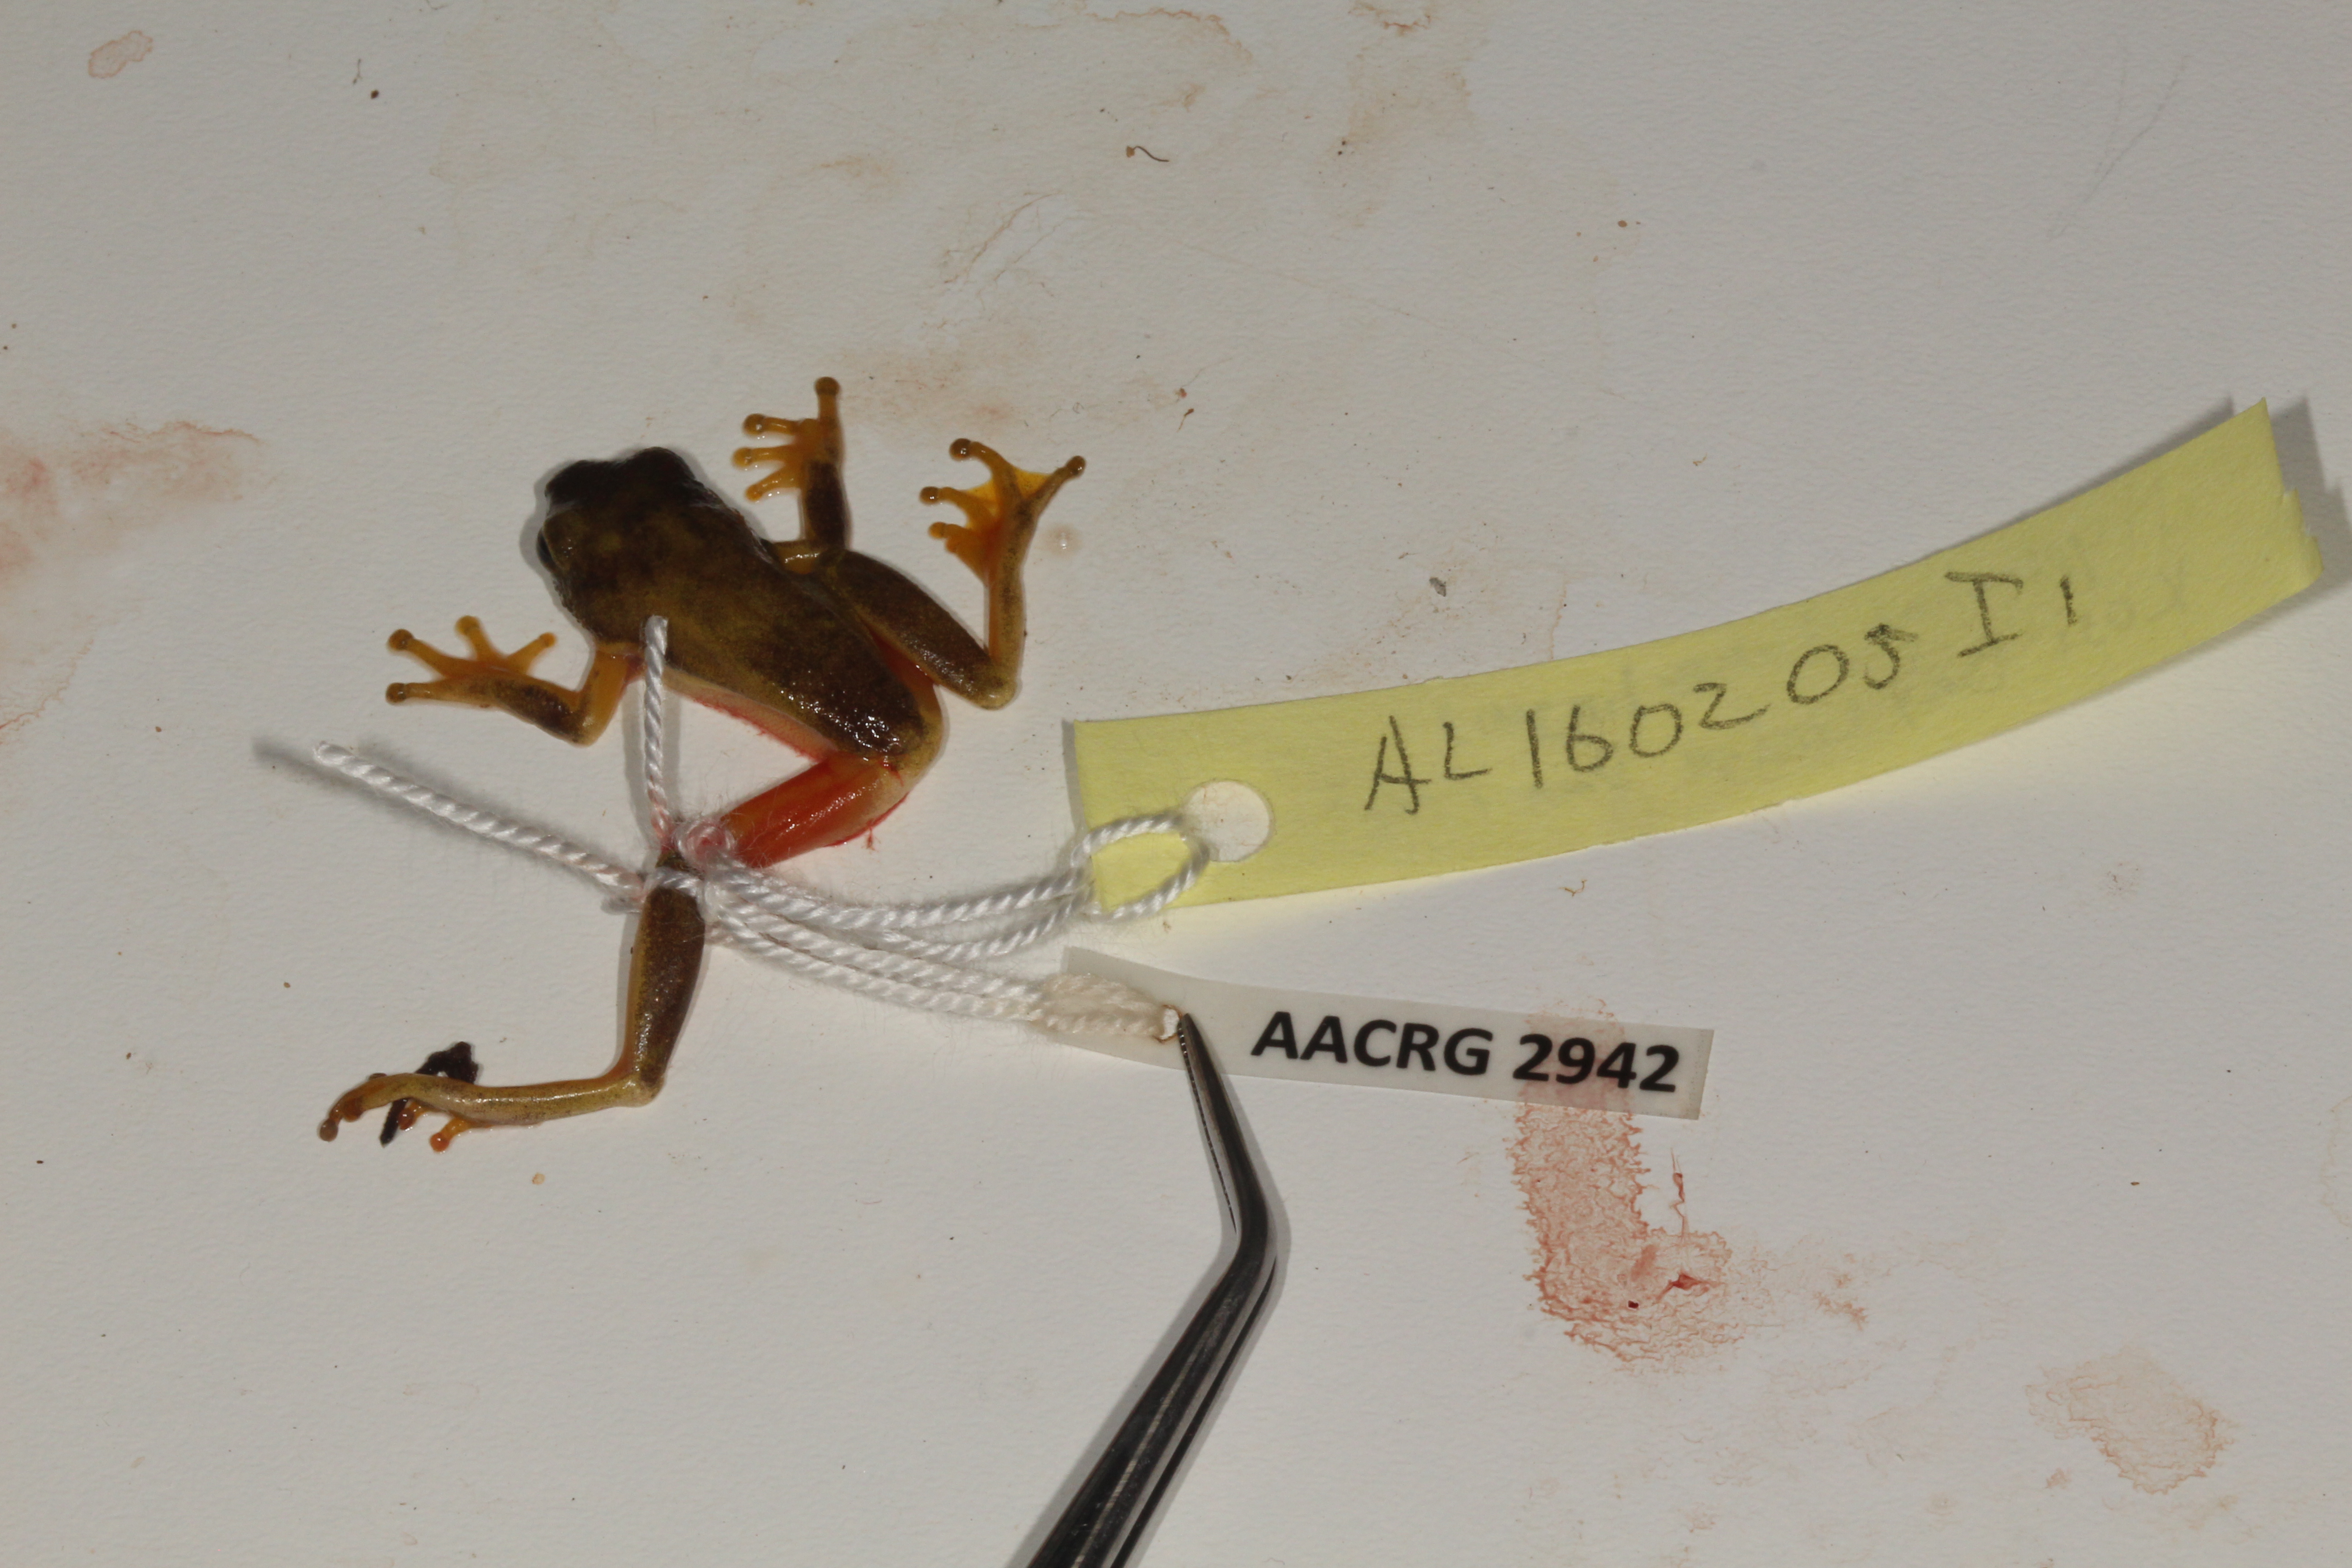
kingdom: Animalia
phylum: Chordata
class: Amphibia
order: Anura
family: Hyperoliidae
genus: Hyperolius
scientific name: Hyperolius tuberilinguis
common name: Tinker reed frog
